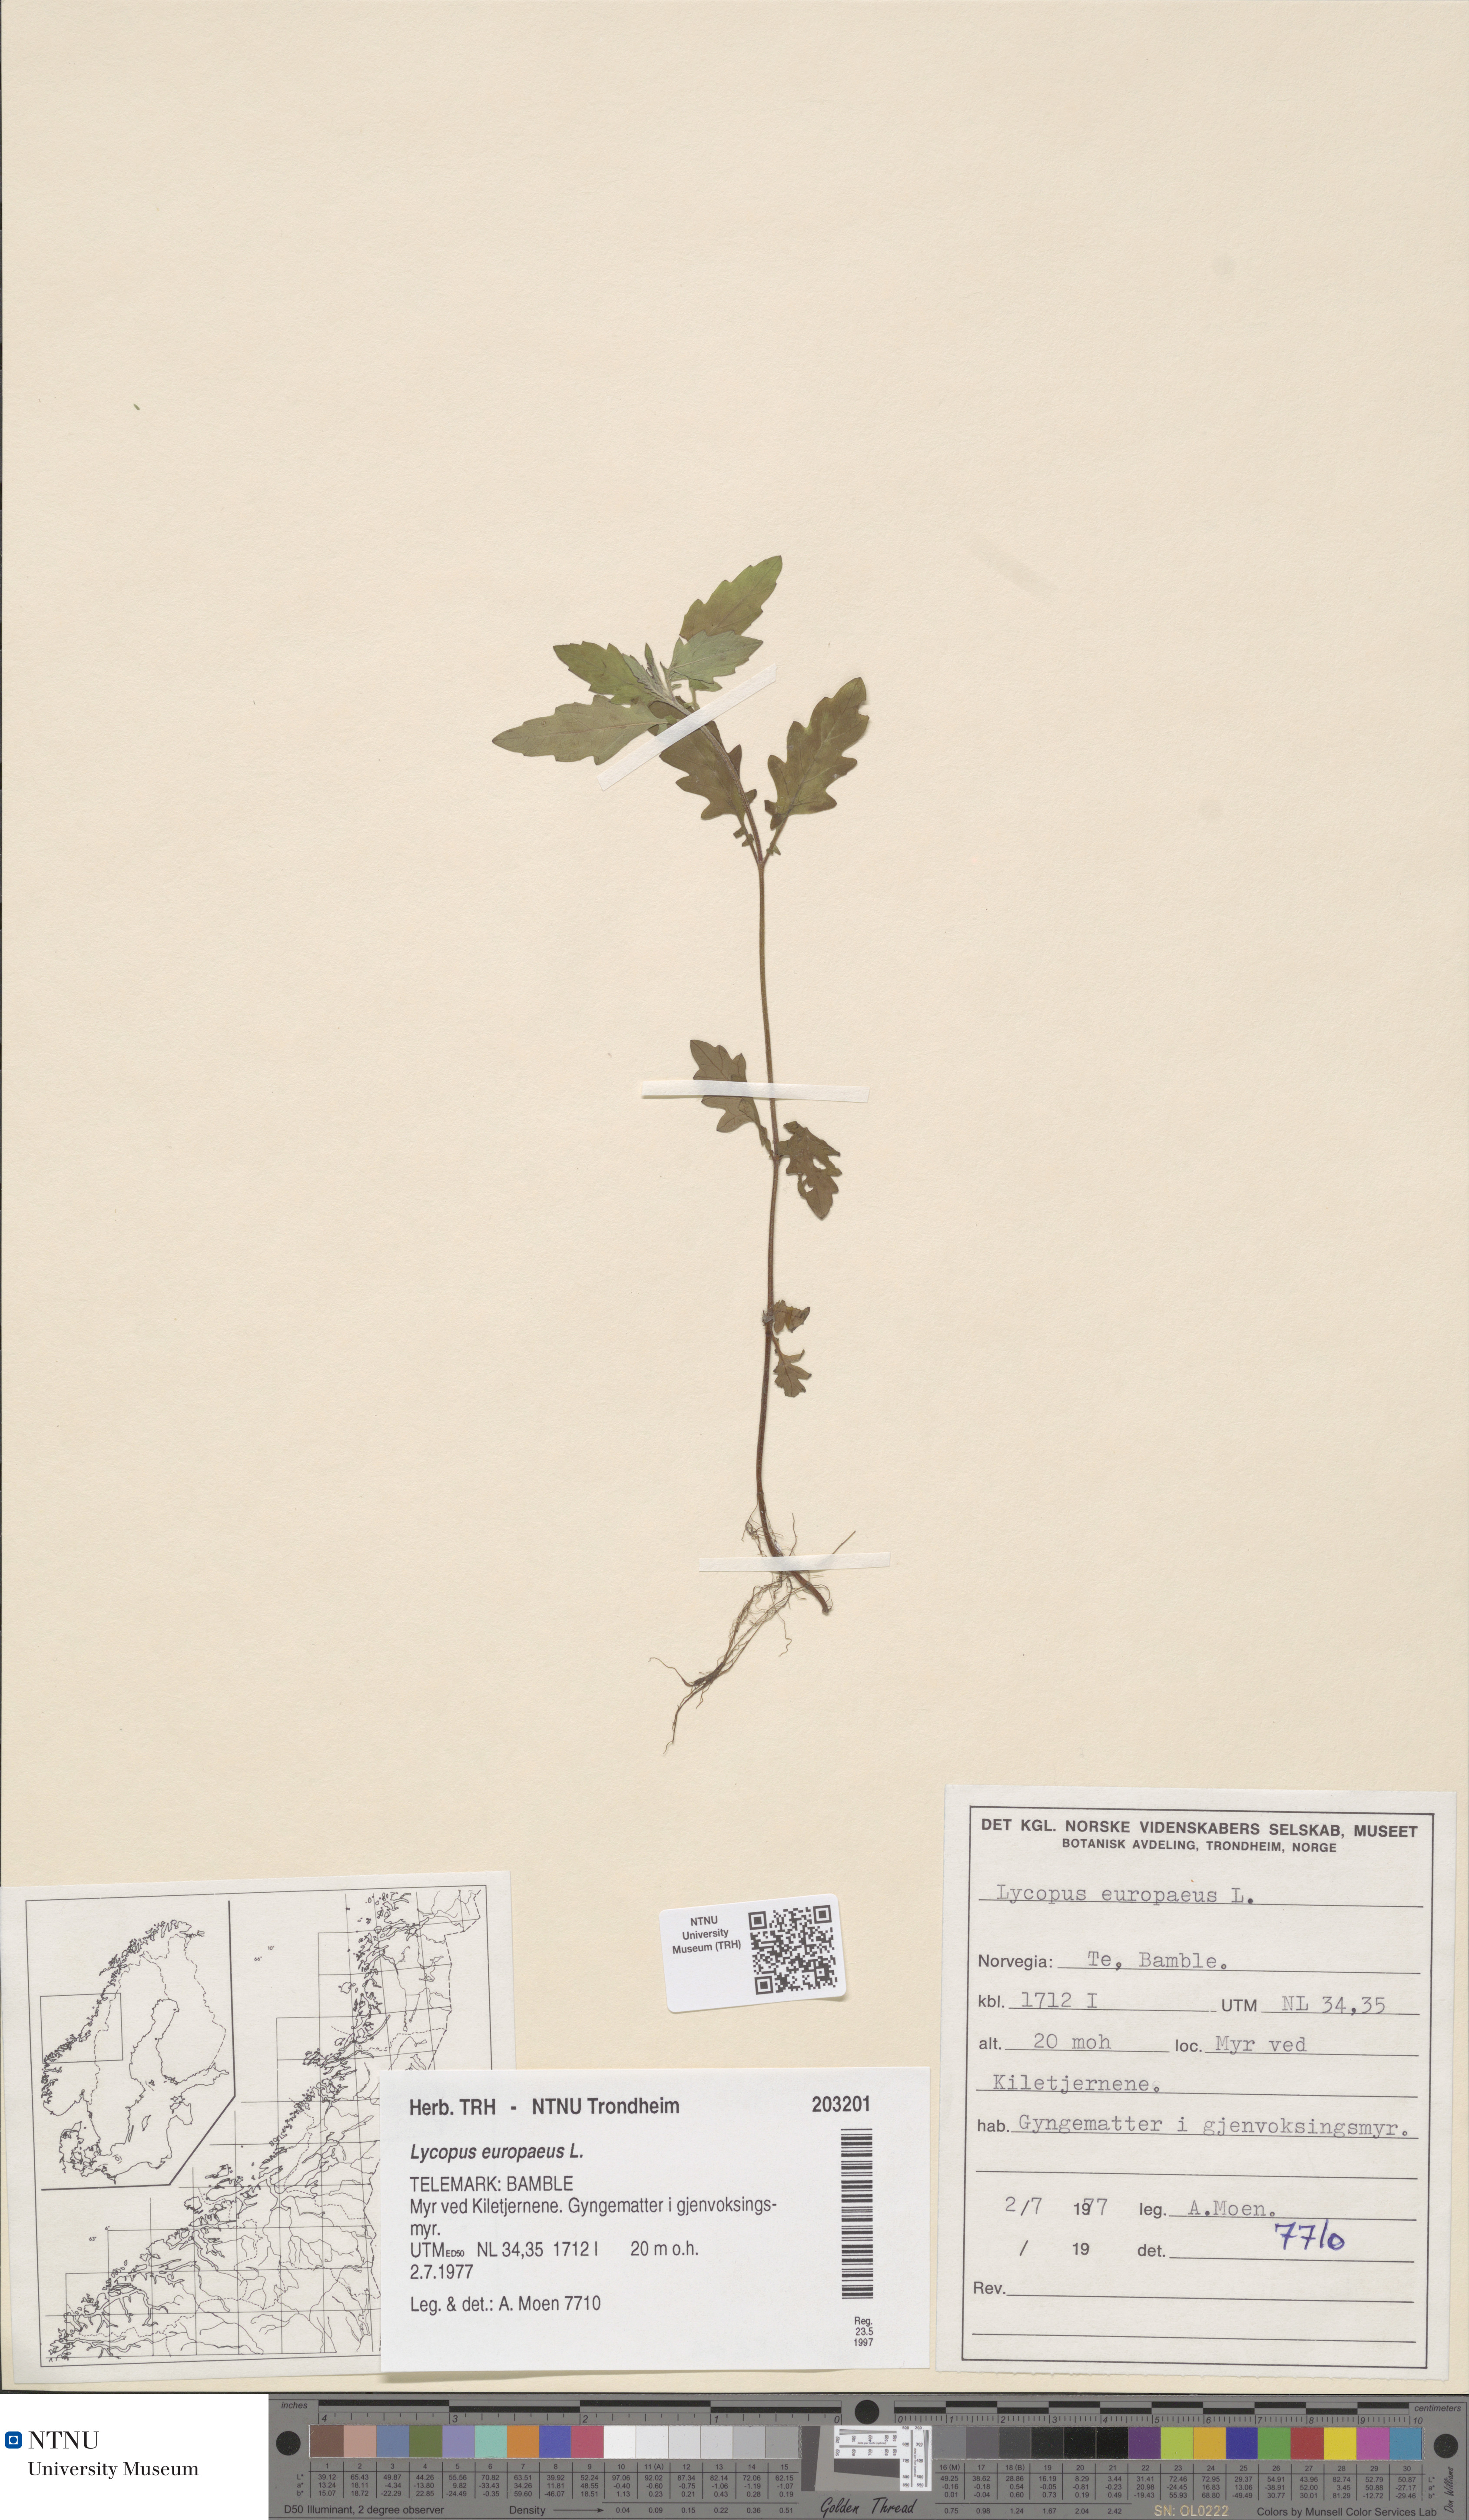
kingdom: Plantae
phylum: Tracheophyta
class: Magnoliopsida
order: Lamiales
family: Lamiaceae
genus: Lycopus
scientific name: Lycopus europaeus
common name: European bugleweed
